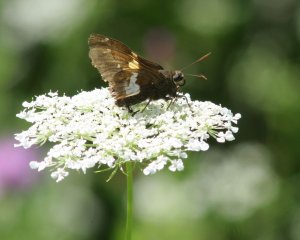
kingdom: Animalia
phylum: Arthropoda
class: Insecta
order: Lepidoptera
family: Hesperiidae
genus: Epargyreus
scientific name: Epargyreus clarus
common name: Silver-spotted Skipper
